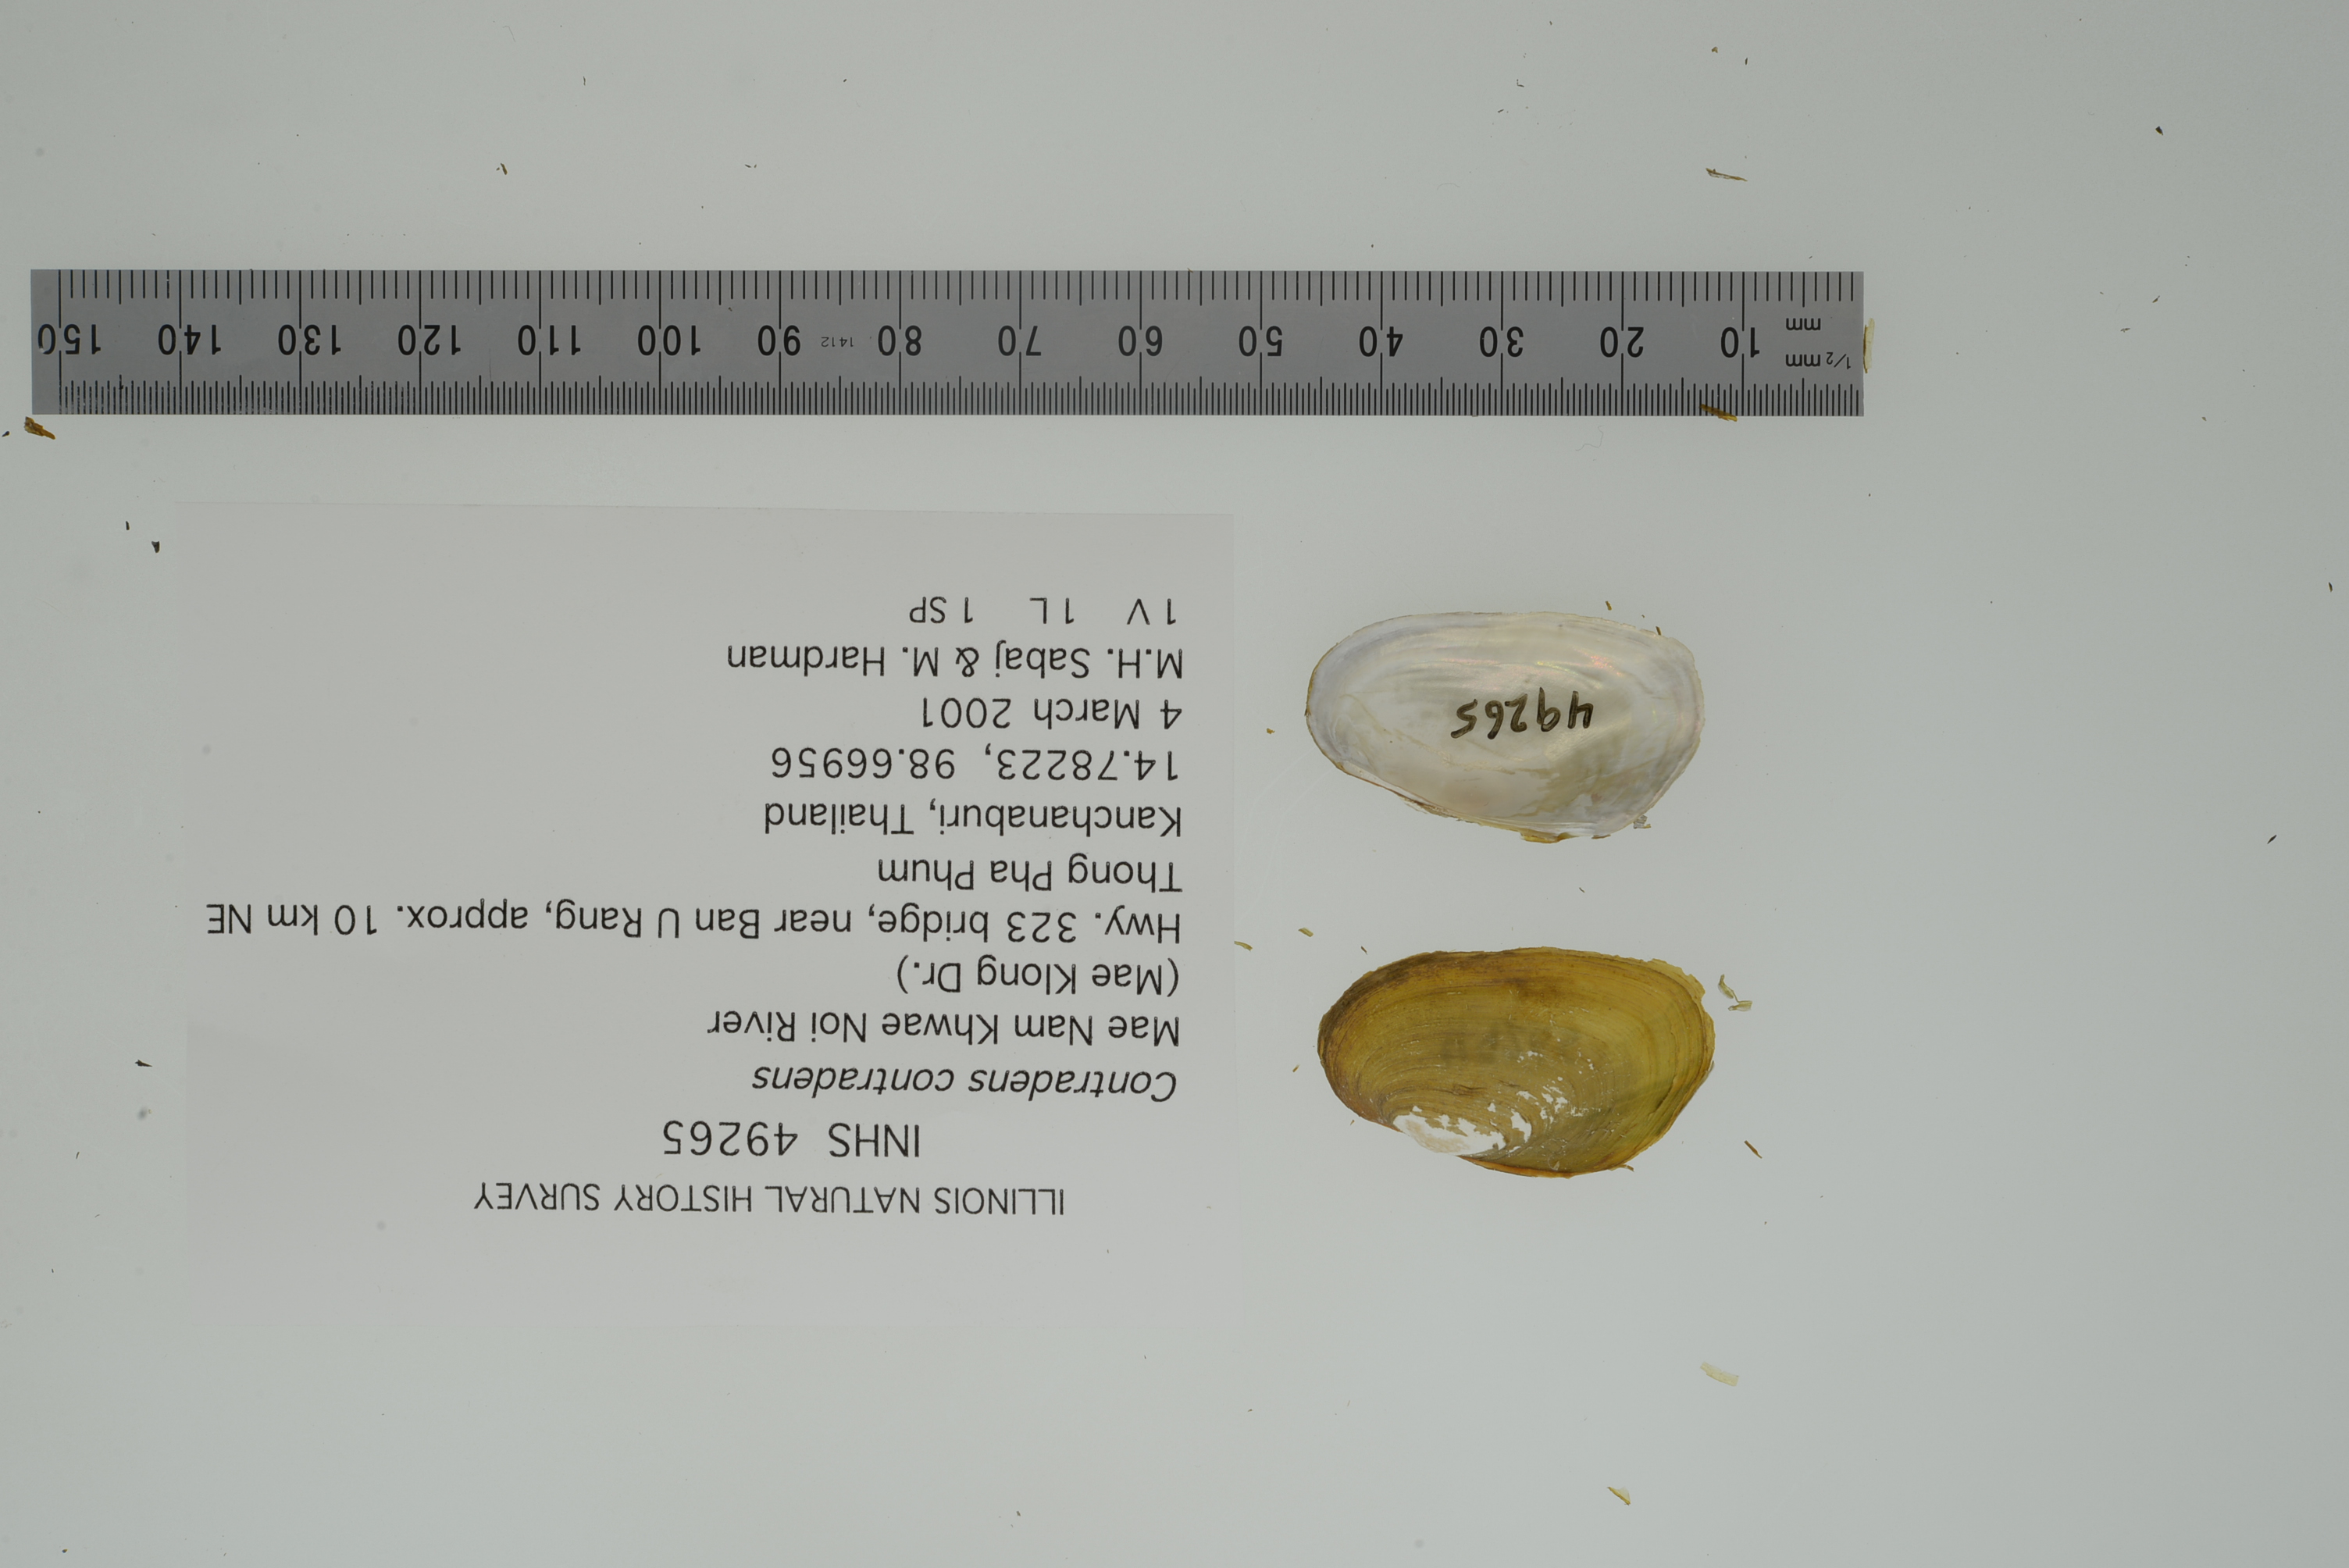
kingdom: Animalia
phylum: Mollusca
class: Bivalvia
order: Unionida
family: Unionidae
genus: Trapezoideus
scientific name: Trapezoideus foliaceus
